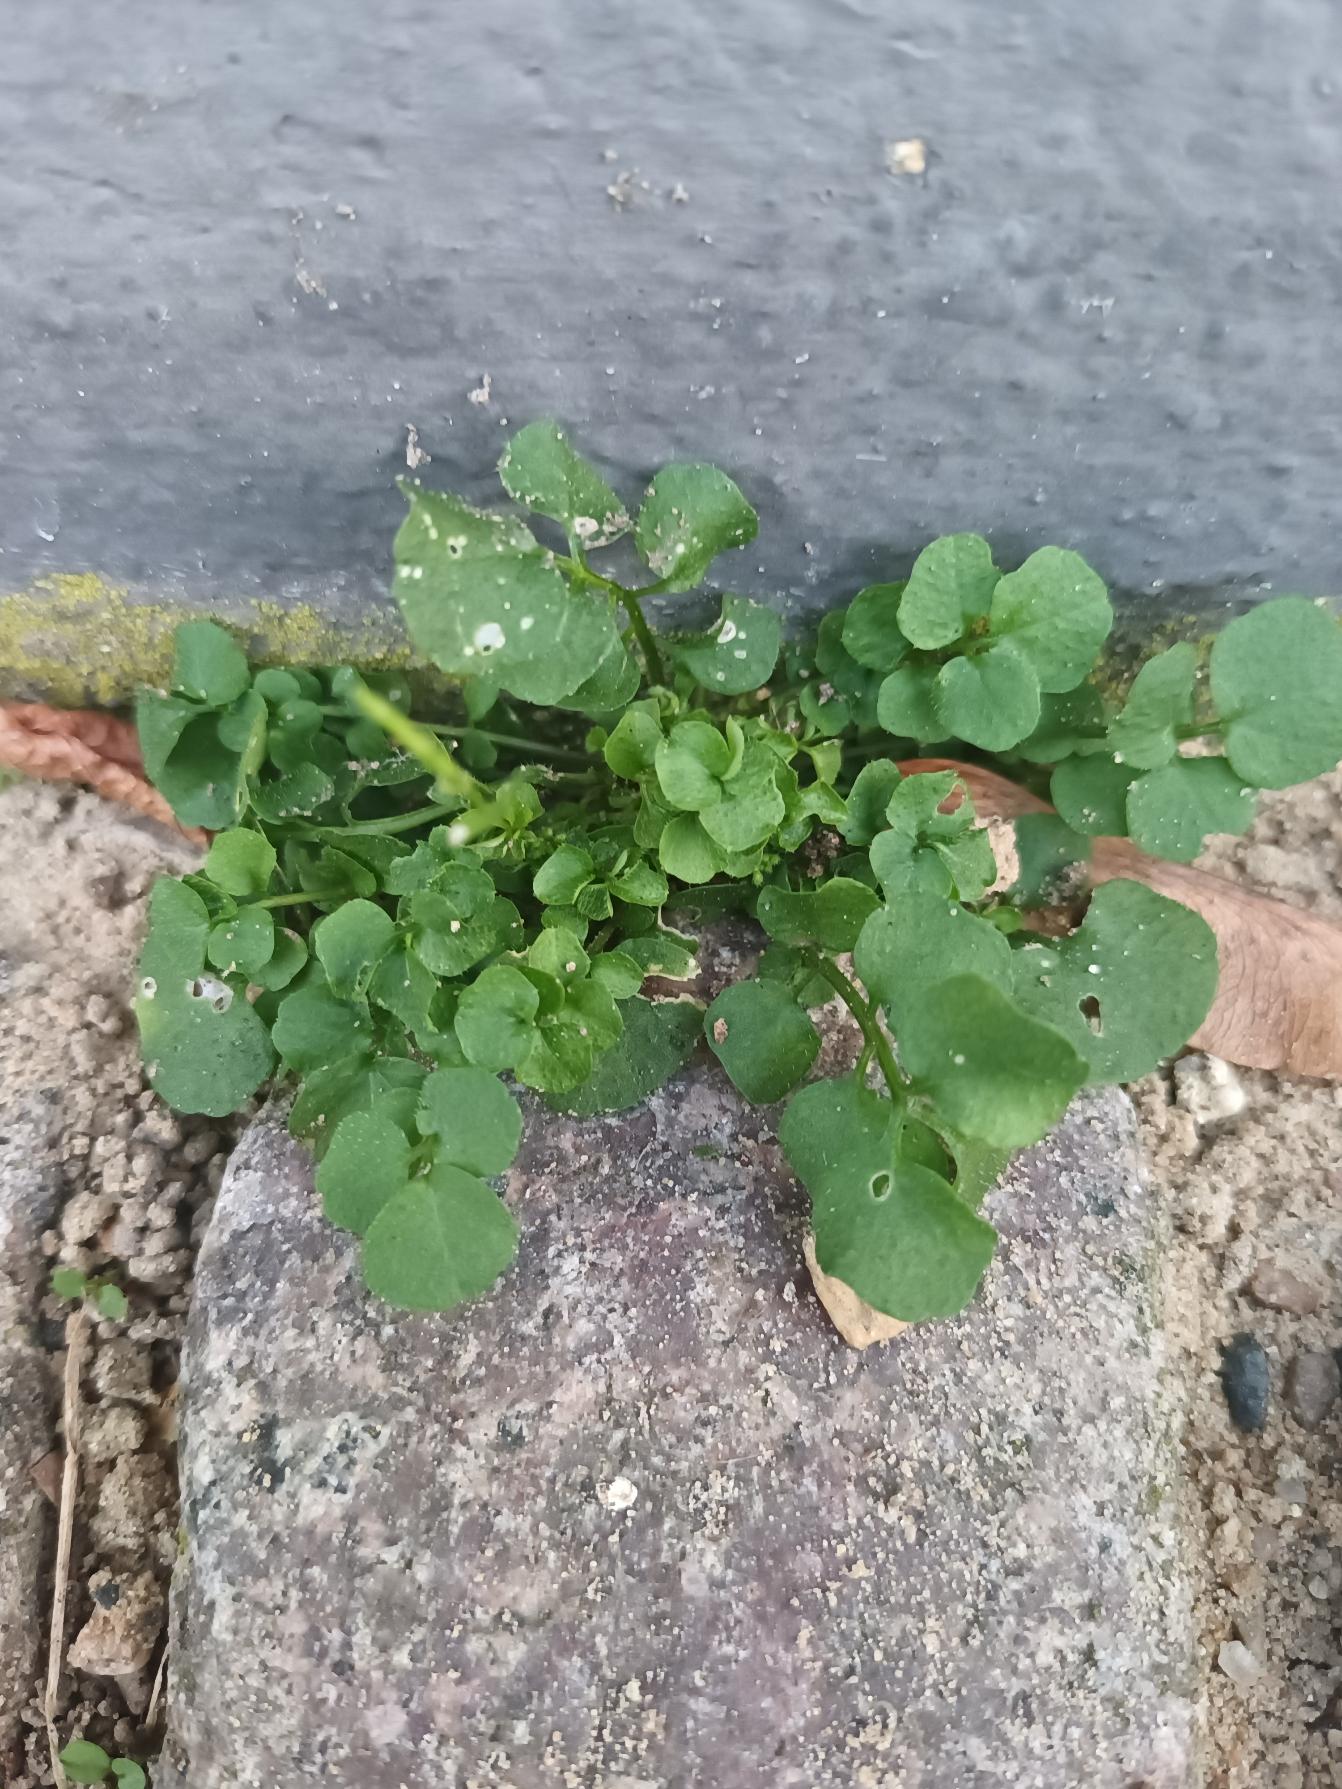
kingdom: Plantae
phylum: Tracheophyta
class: Magnoliopsida
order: Brassicales
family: Brassicaceae
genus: Cardamine
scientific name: Cardamine hirsuta
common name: Roset-springklap
